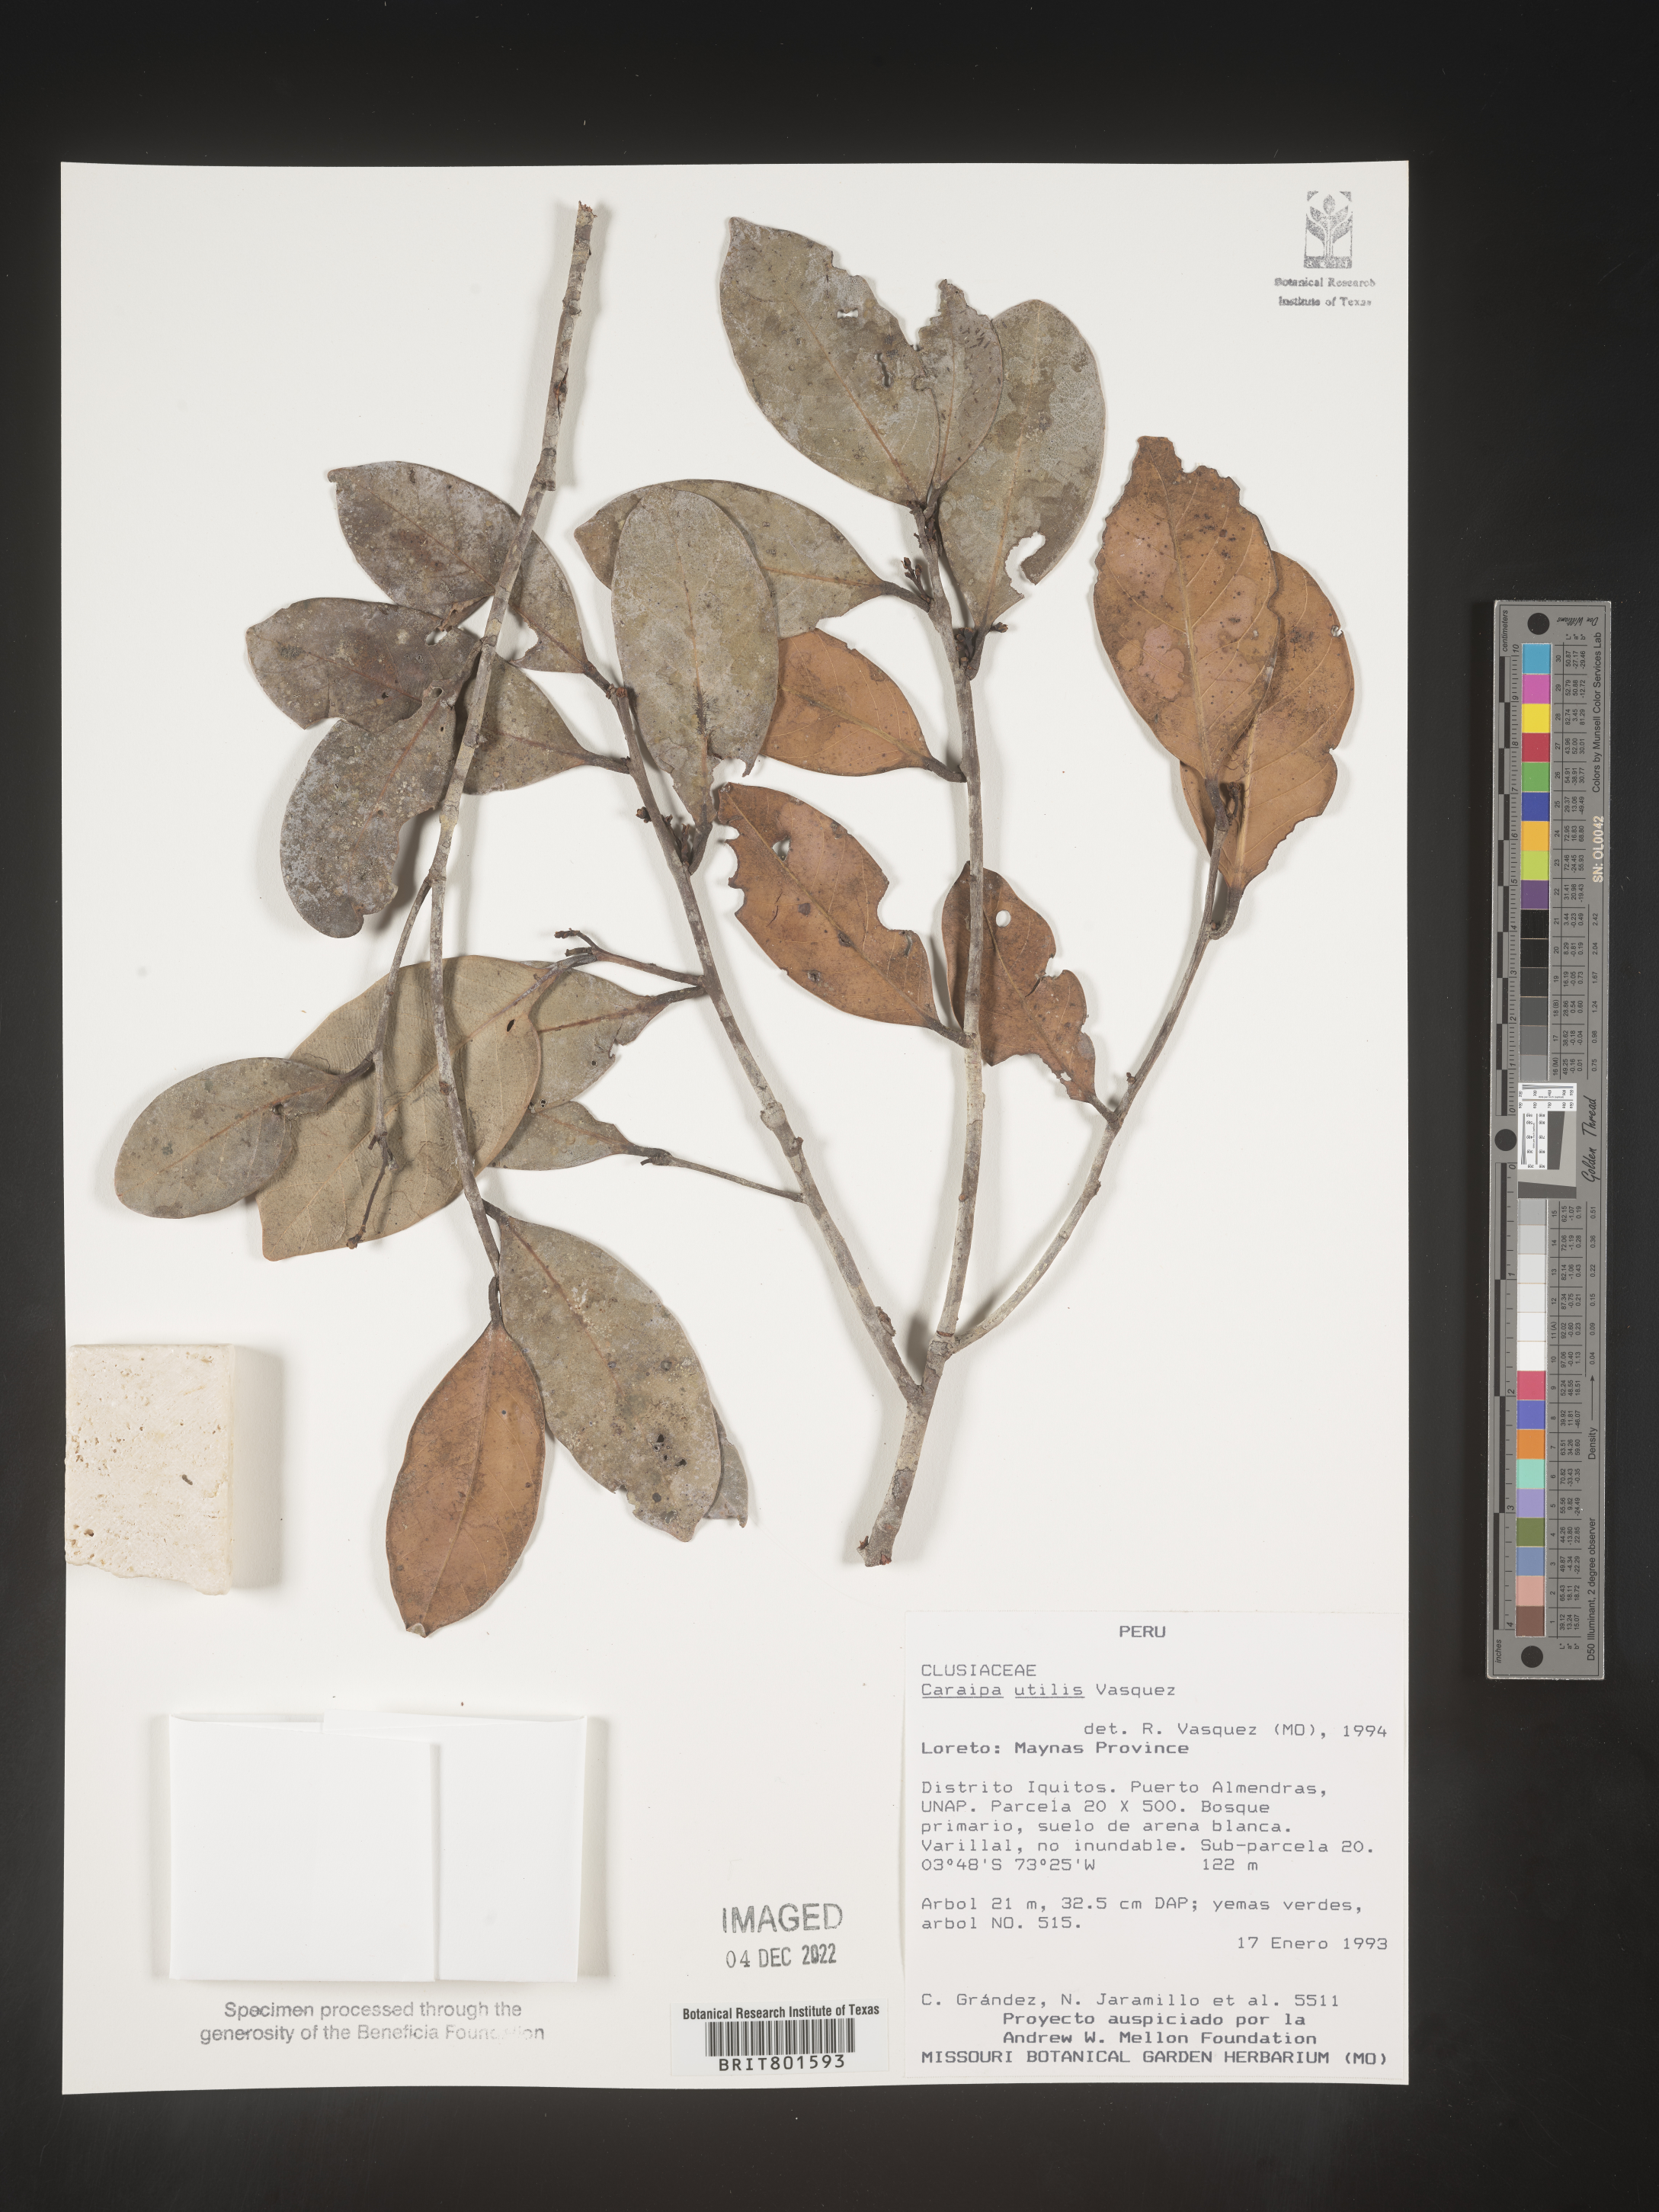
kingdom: Plantae
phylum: Tracheophyta
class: Magnoliopsida
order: Malpighiales
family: Calophyllaceae
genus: Caraipa
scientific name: Caraipa utilis
